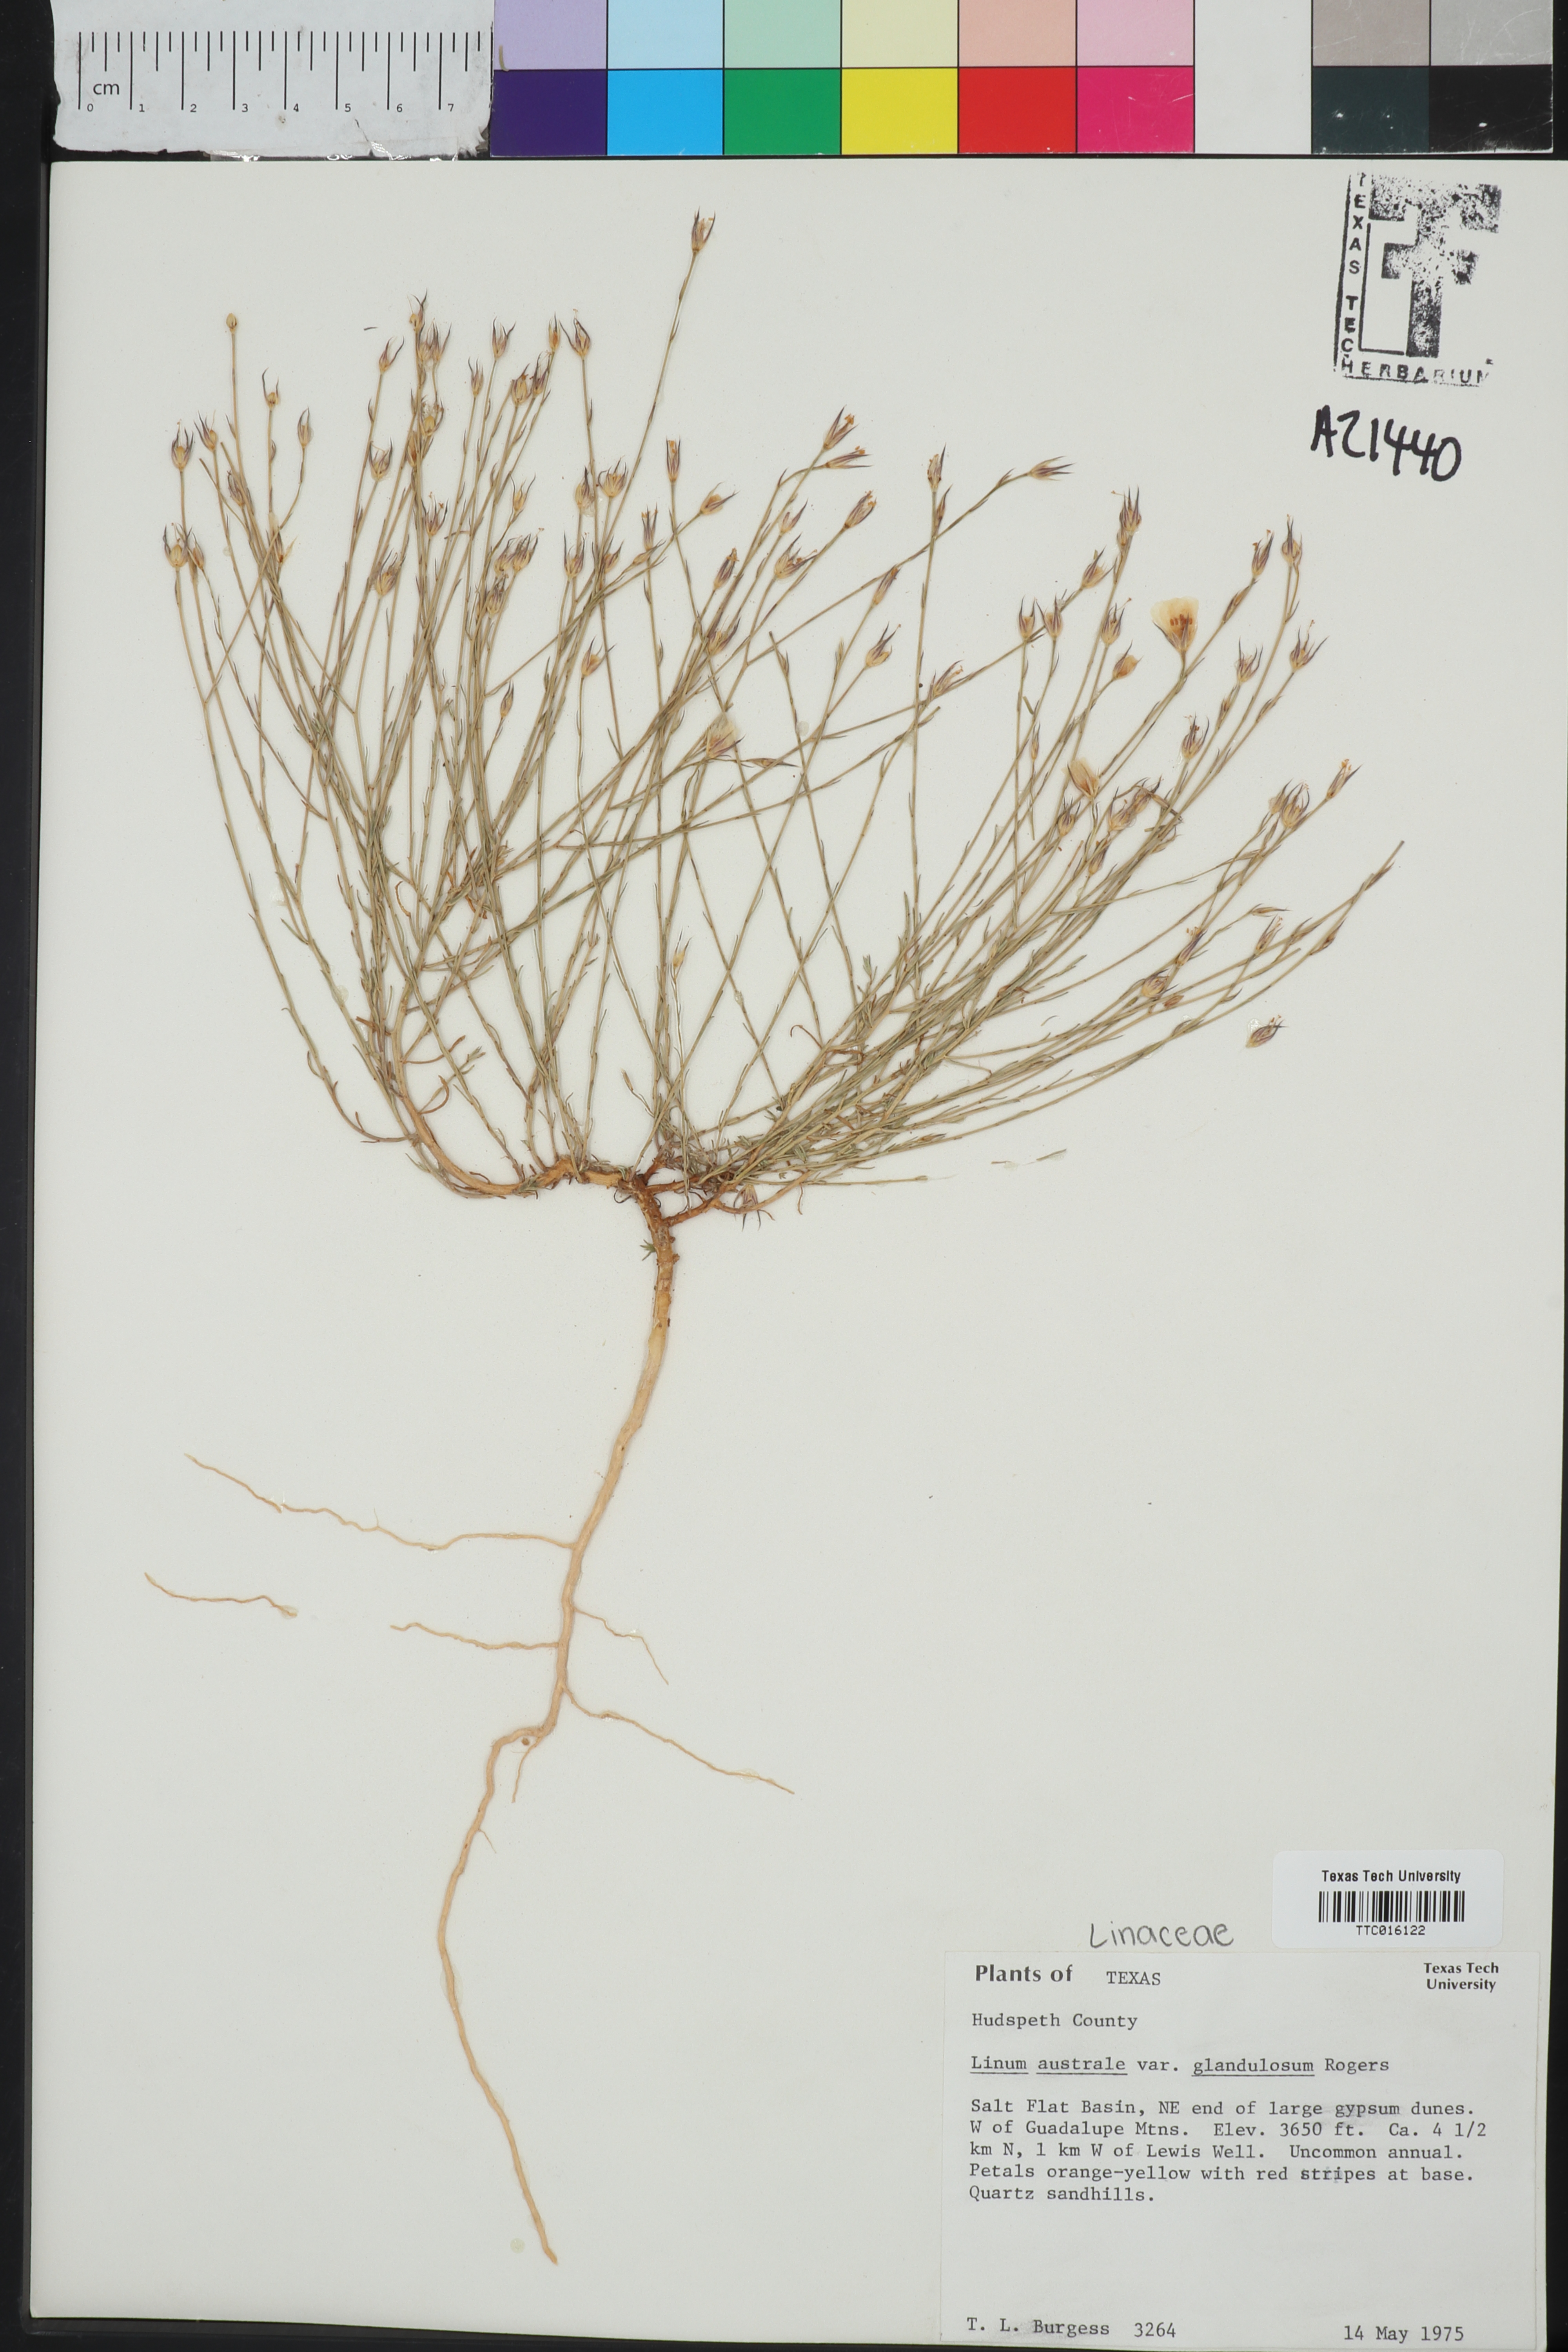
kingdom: Plantae
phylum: Tracheophyta
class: Magnoliopsida
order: Malpighiales
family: Linaceae
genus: Linum
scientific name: Linum australe
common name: Small yellow flax
